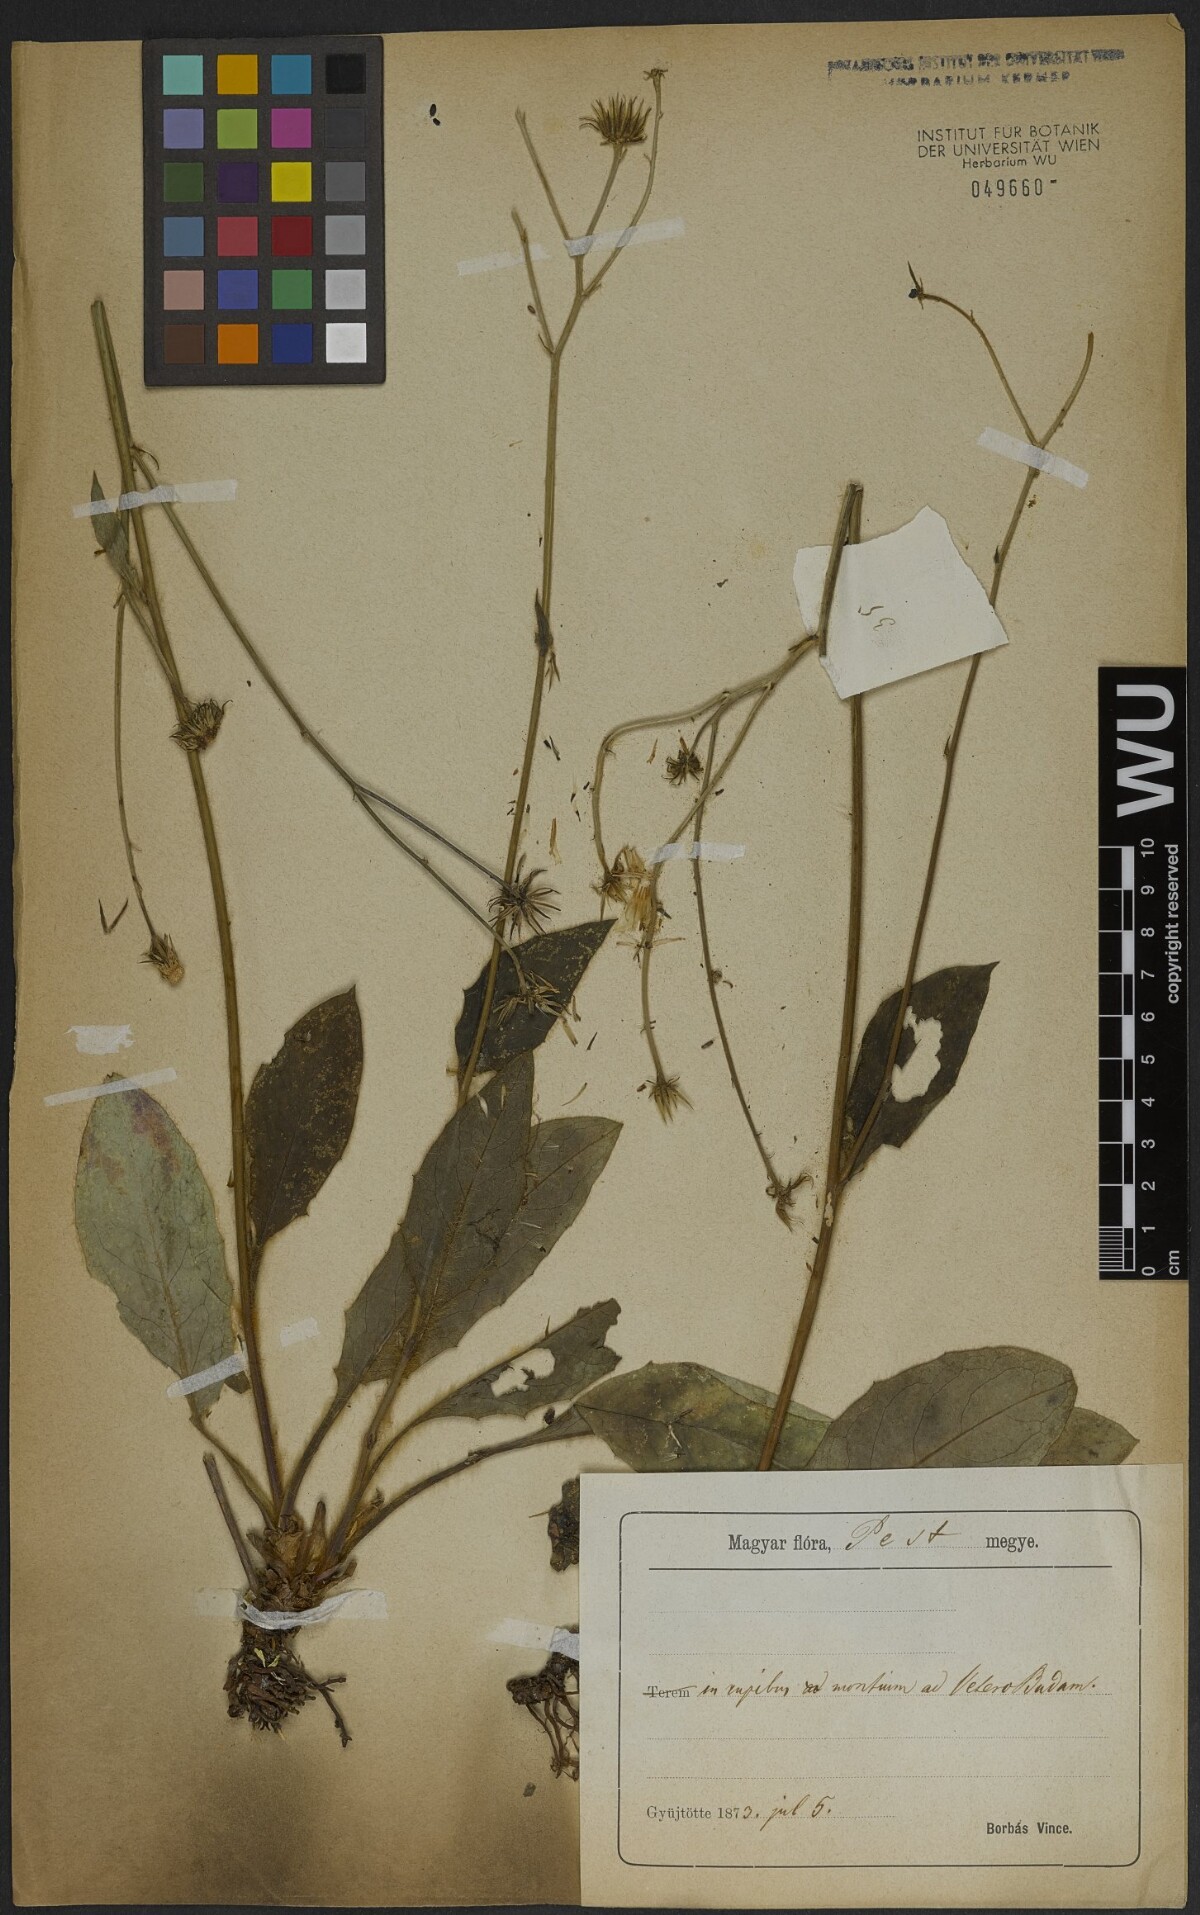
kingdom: Plantae
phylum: Tracheophyta
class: Magnoliopsida
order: Asterales
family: Asteraceae
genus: Leontodon
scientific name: Leontodon hispidus
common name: Rough hawkbit
